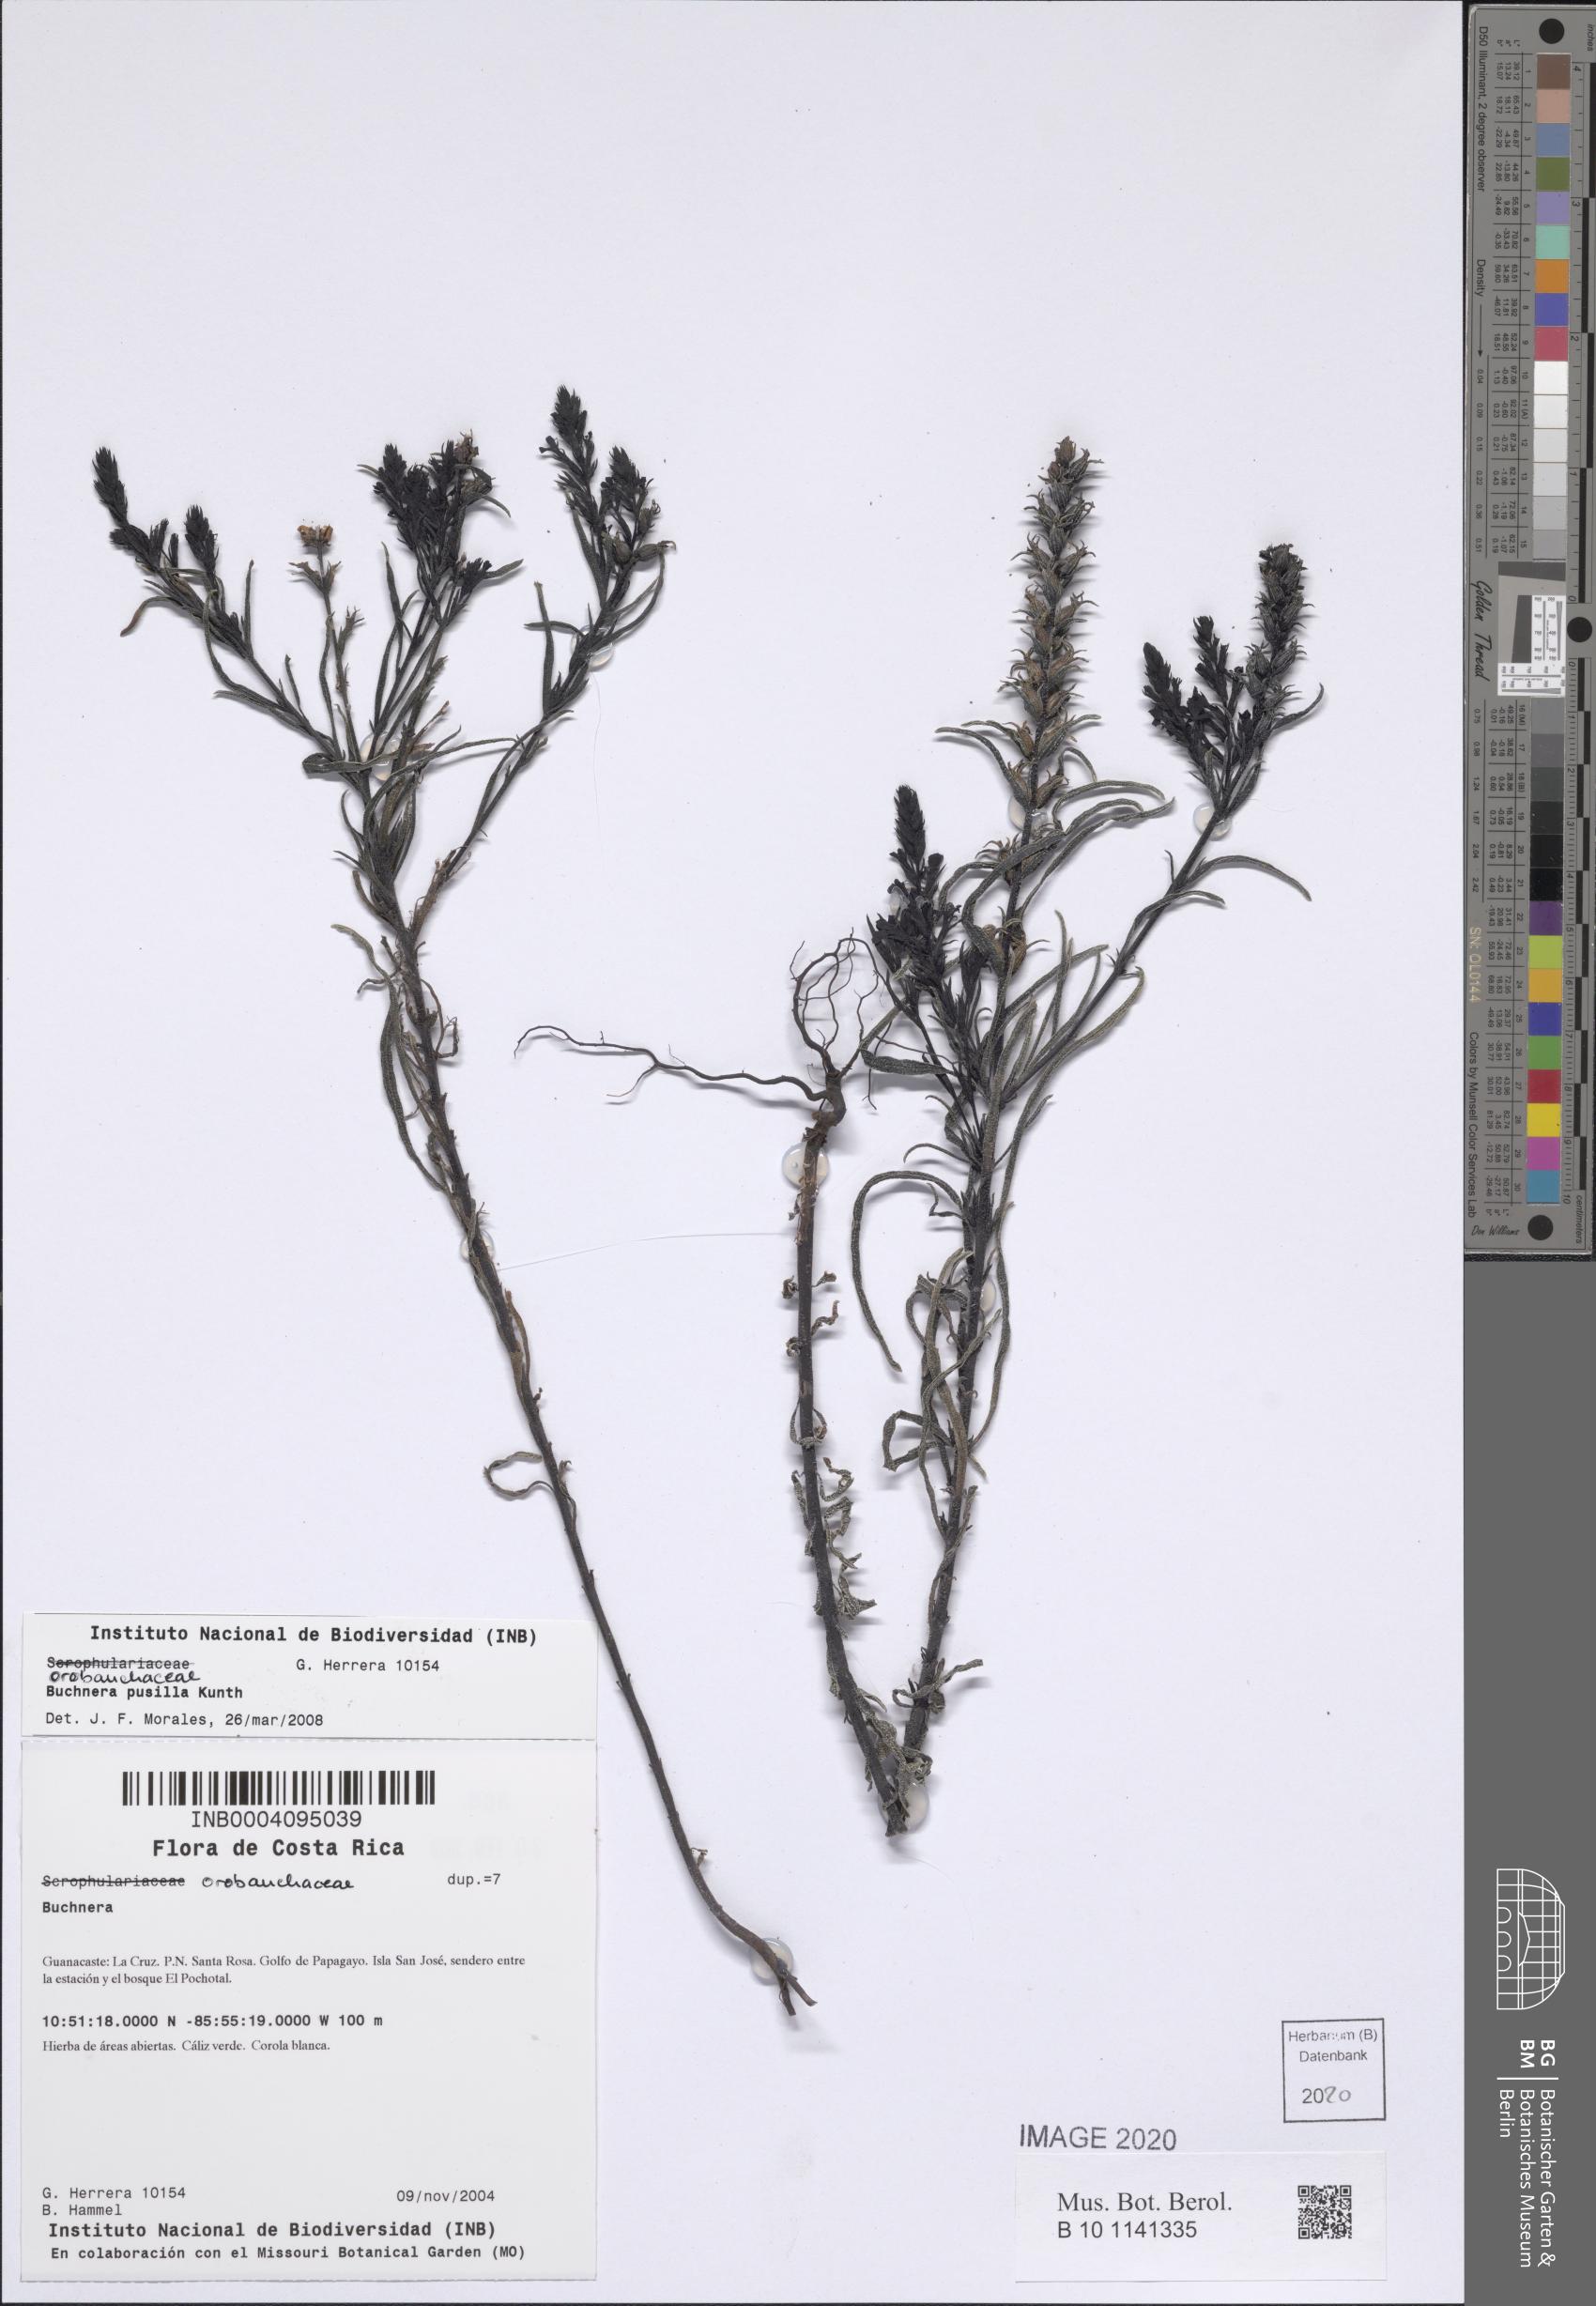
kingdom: Plantae
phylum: Tracheophyta
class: Magnoliopsida
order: Lamiales
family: Orobanchaceae
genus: Buchnera
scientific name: Buchnera pusilla
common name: Pygmy bluehearts
